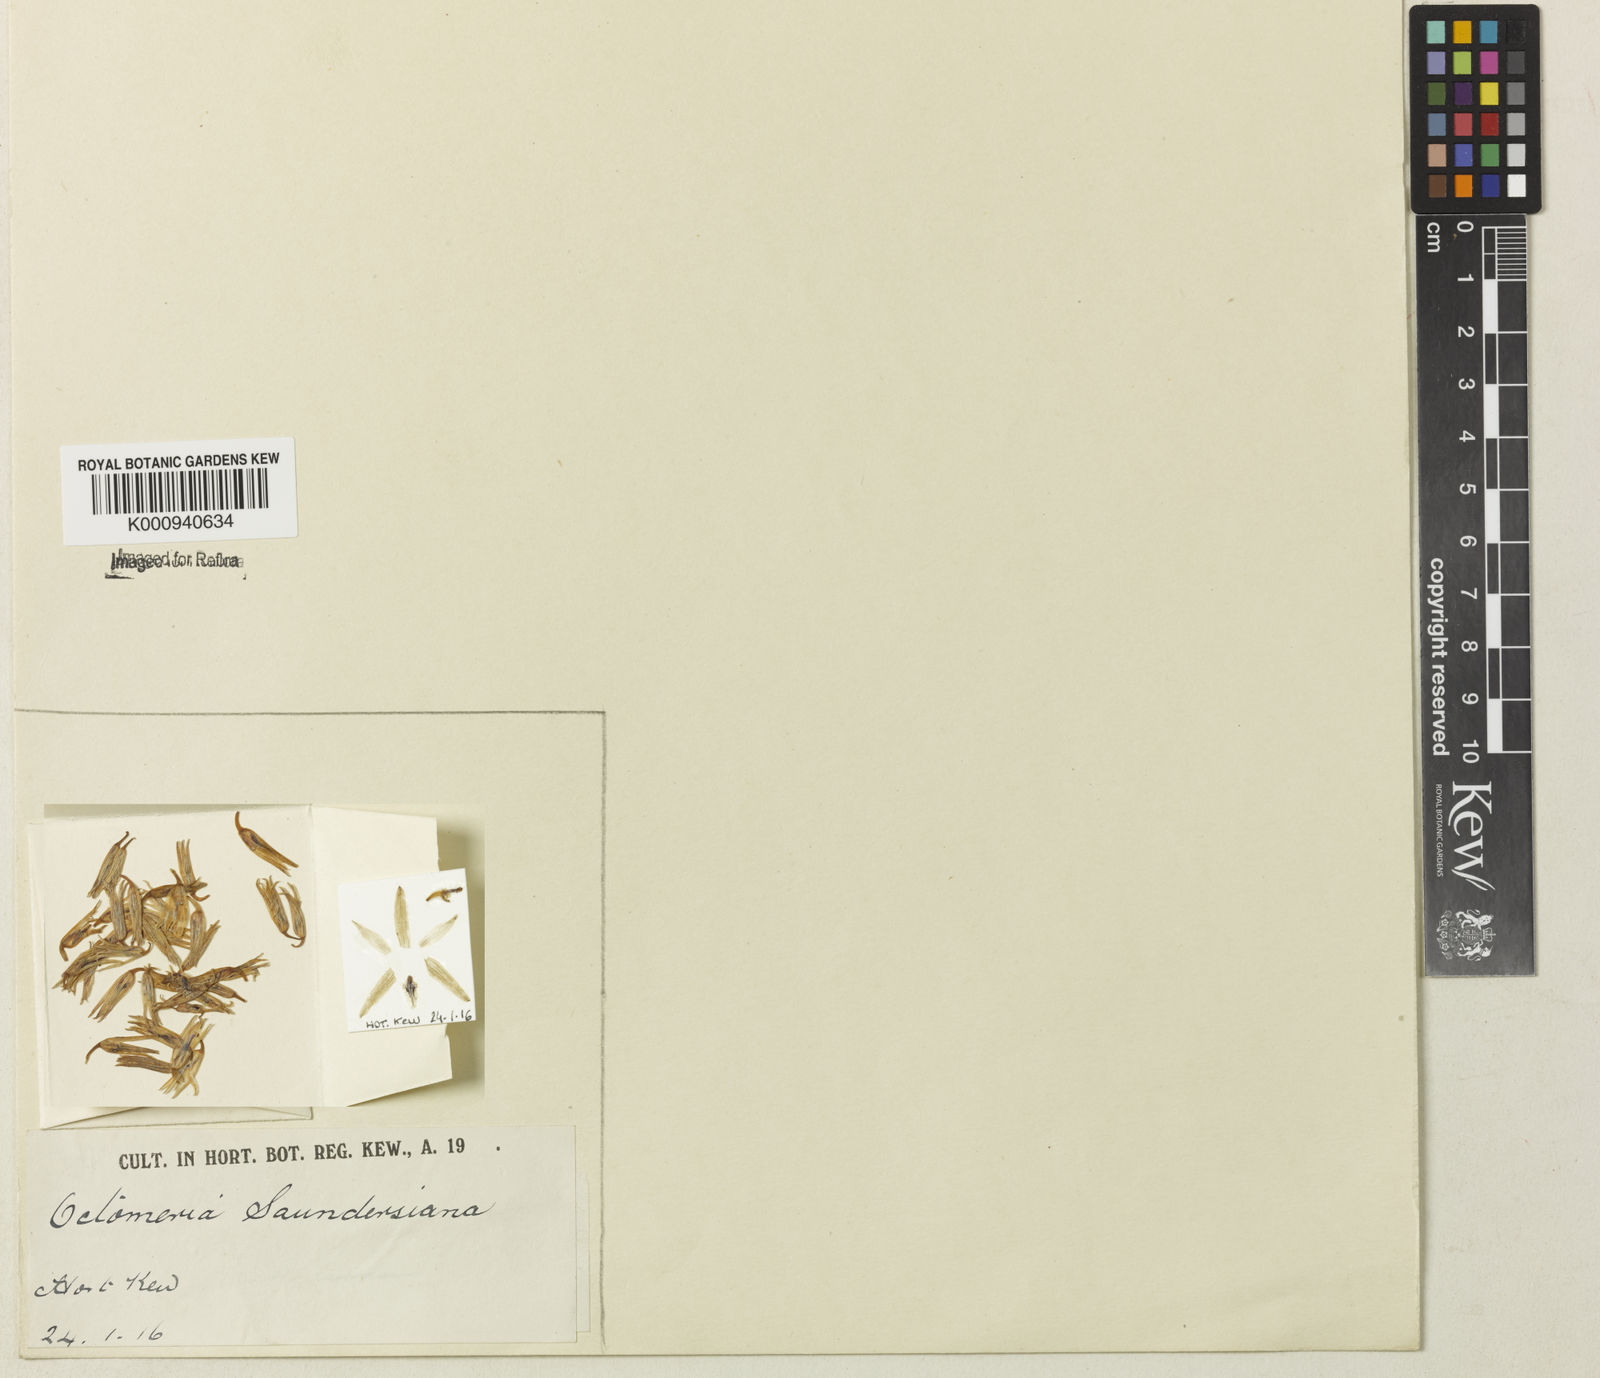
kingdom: Plantae
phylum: Tracheophyta
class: Liliopsida
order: Asparagales
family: Orchidaceae
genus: Octomeria
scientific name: Octomeria saundersiana
